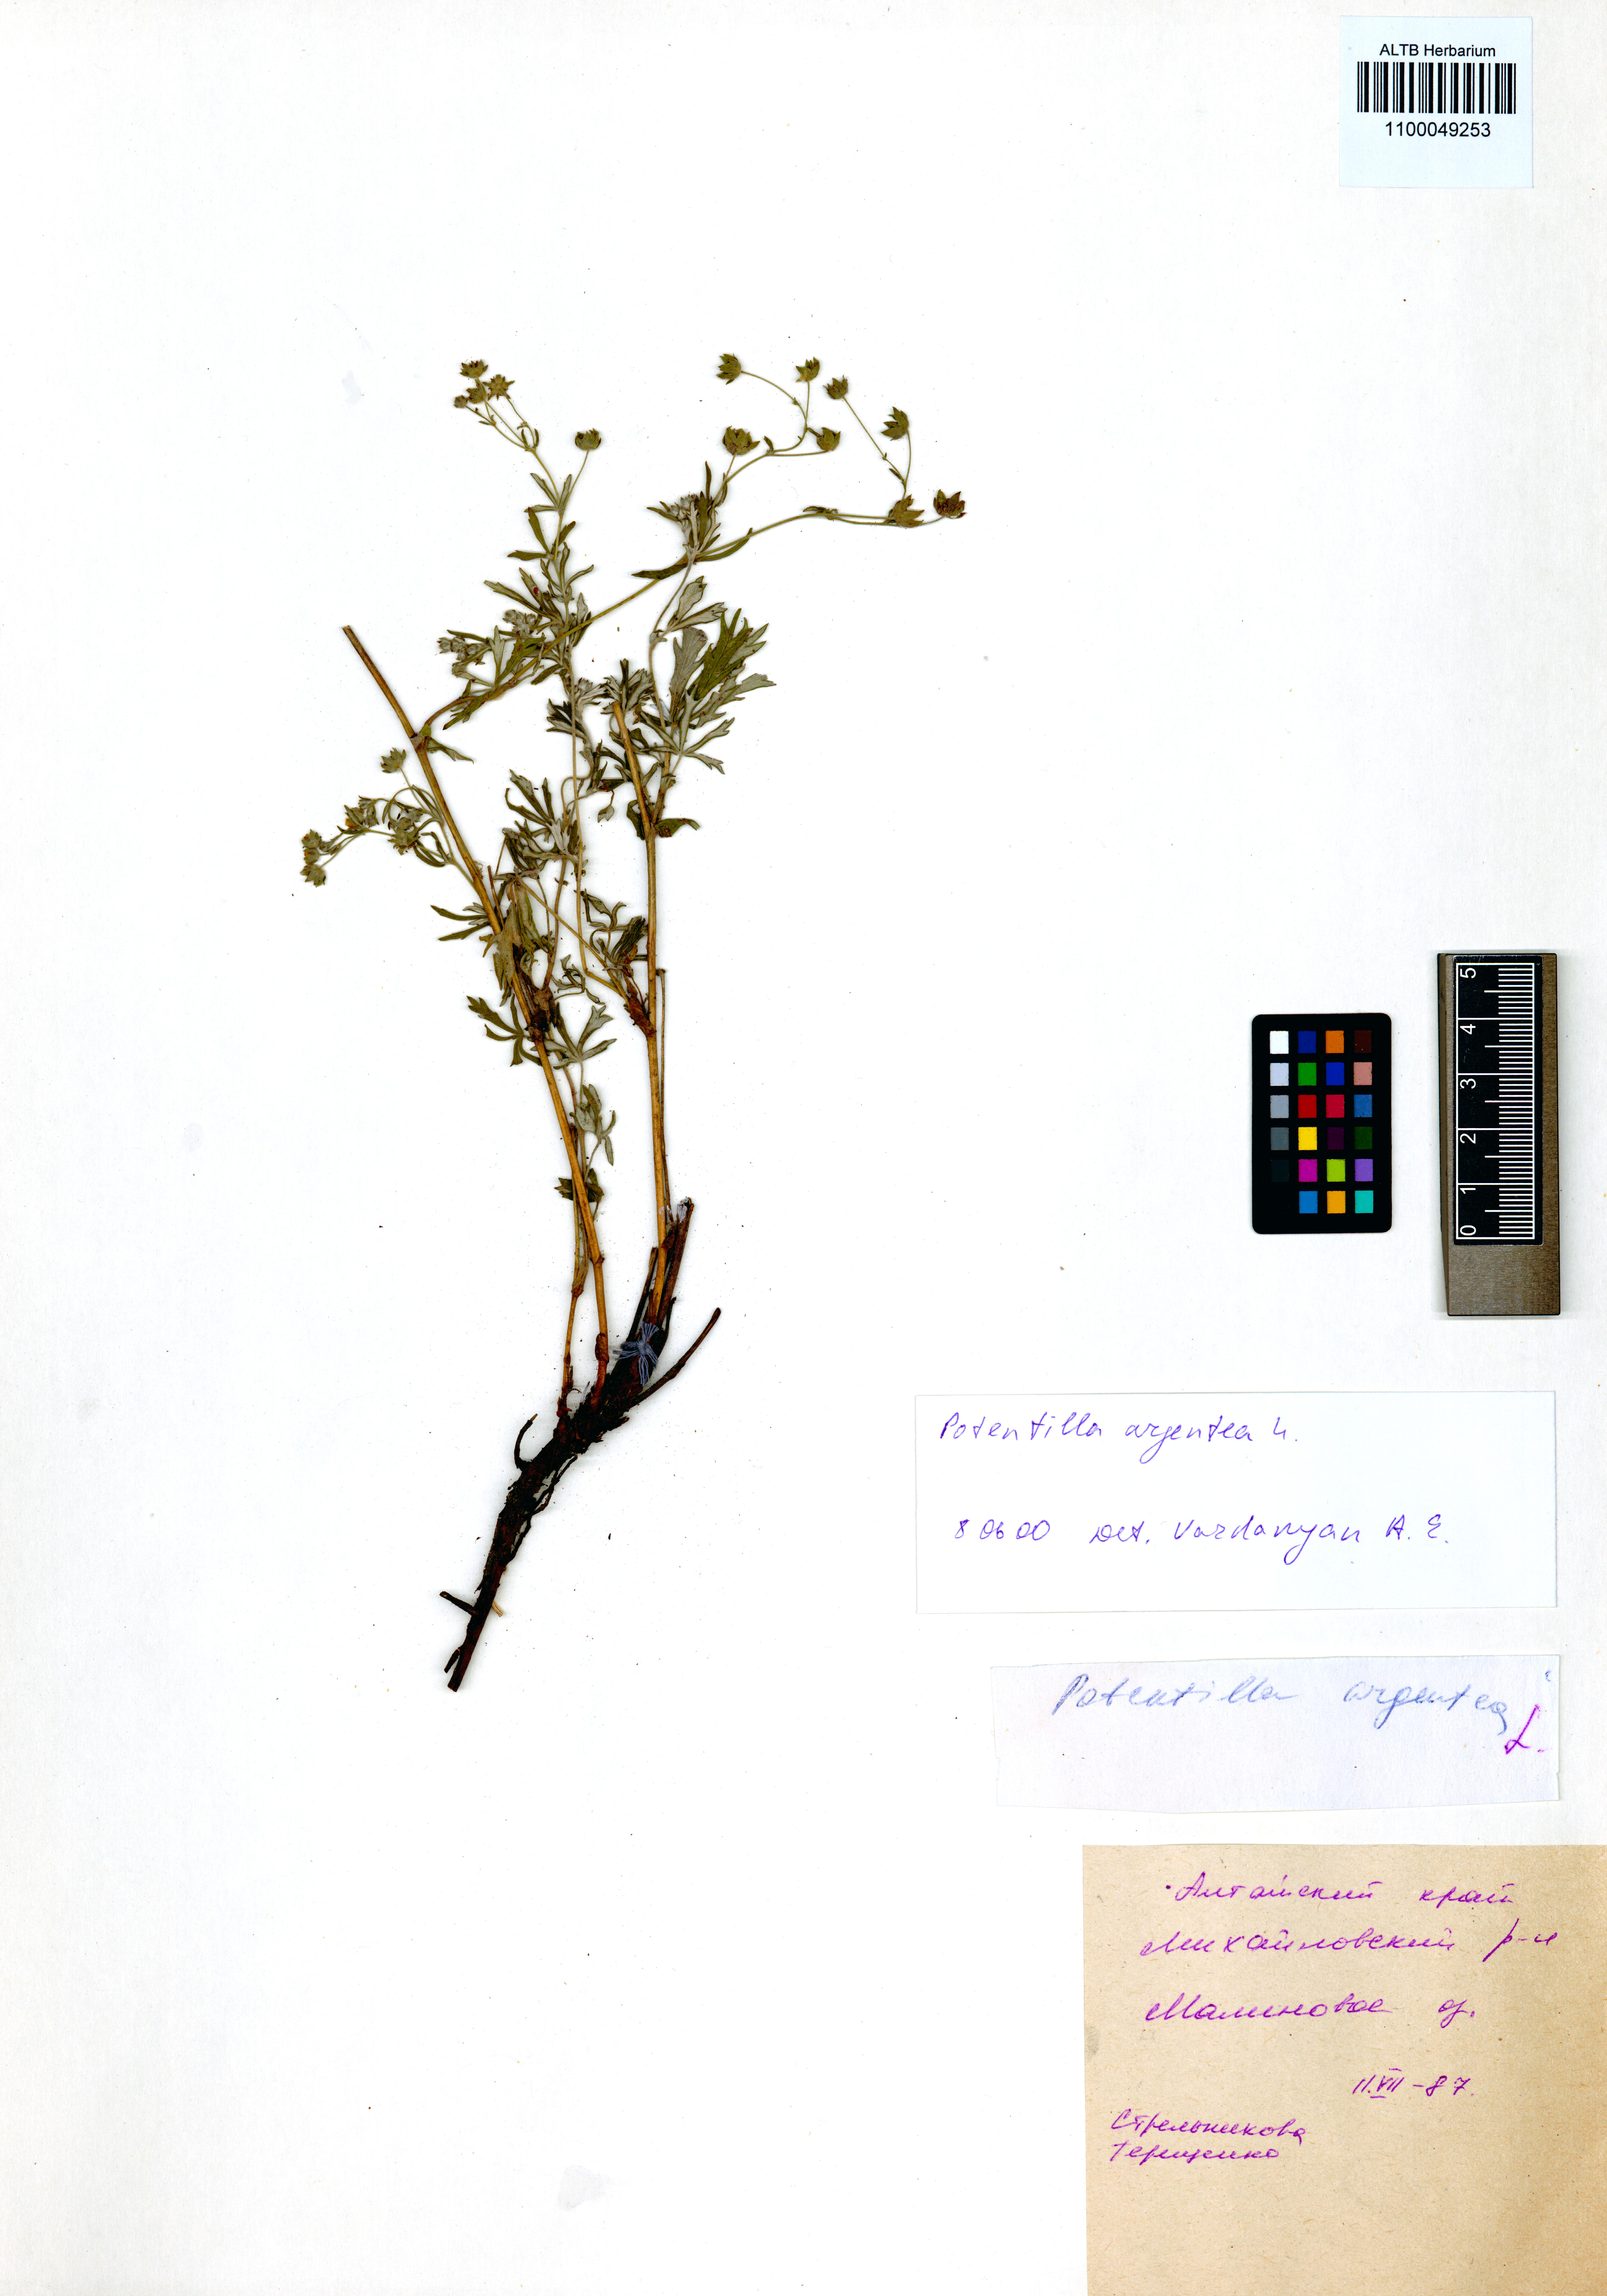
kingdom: Plantae
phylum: Tracheophyta
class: Magnoliopsida
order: Rosales
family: Rosaceae
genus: Potentilla
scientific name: Potentilla argentea
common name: Hoary cinquefoil
